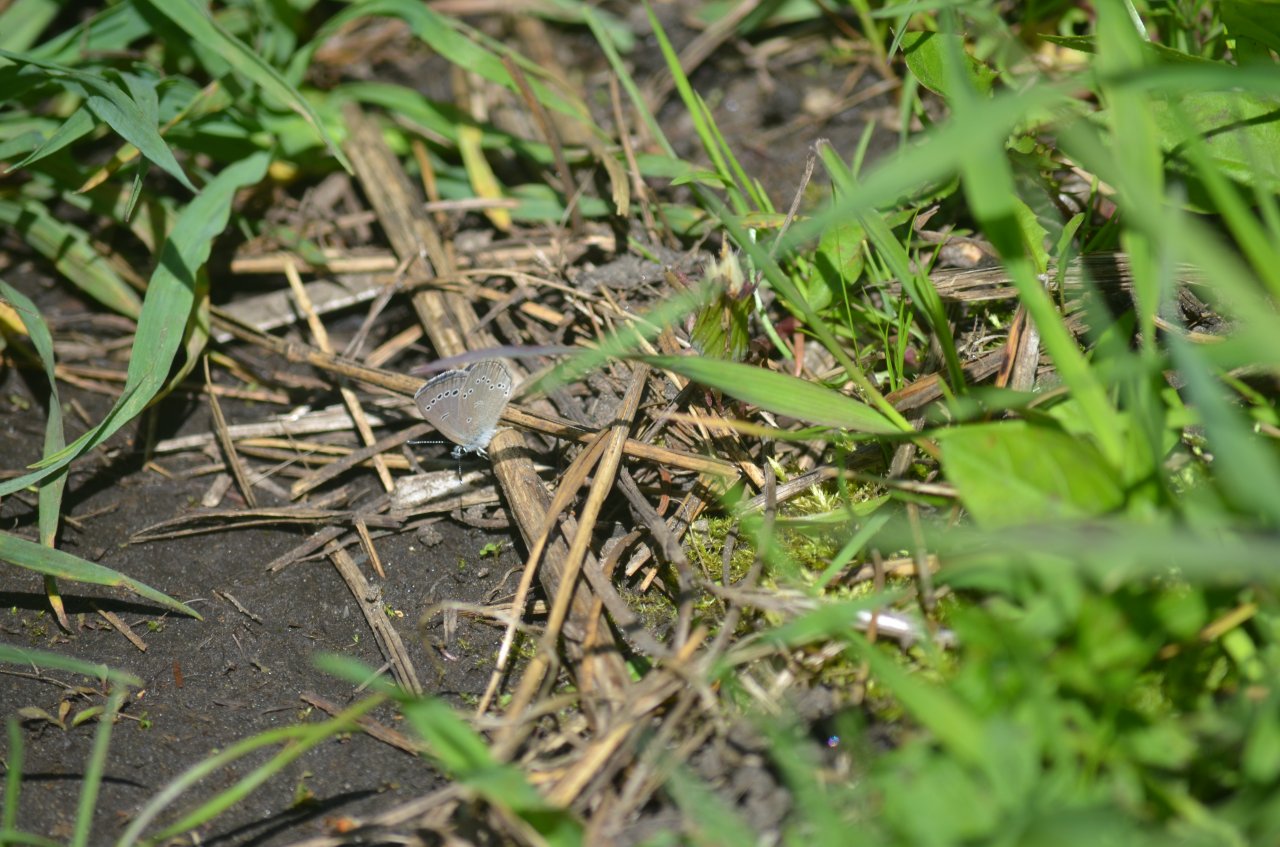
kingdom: Animalia
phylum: Arthropoda
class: Insecta
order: Lepidoptera
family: Lycaenidae
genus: Glaucopsyche
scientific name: Glaucopsyche lygdamus
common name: Silvery Blue
